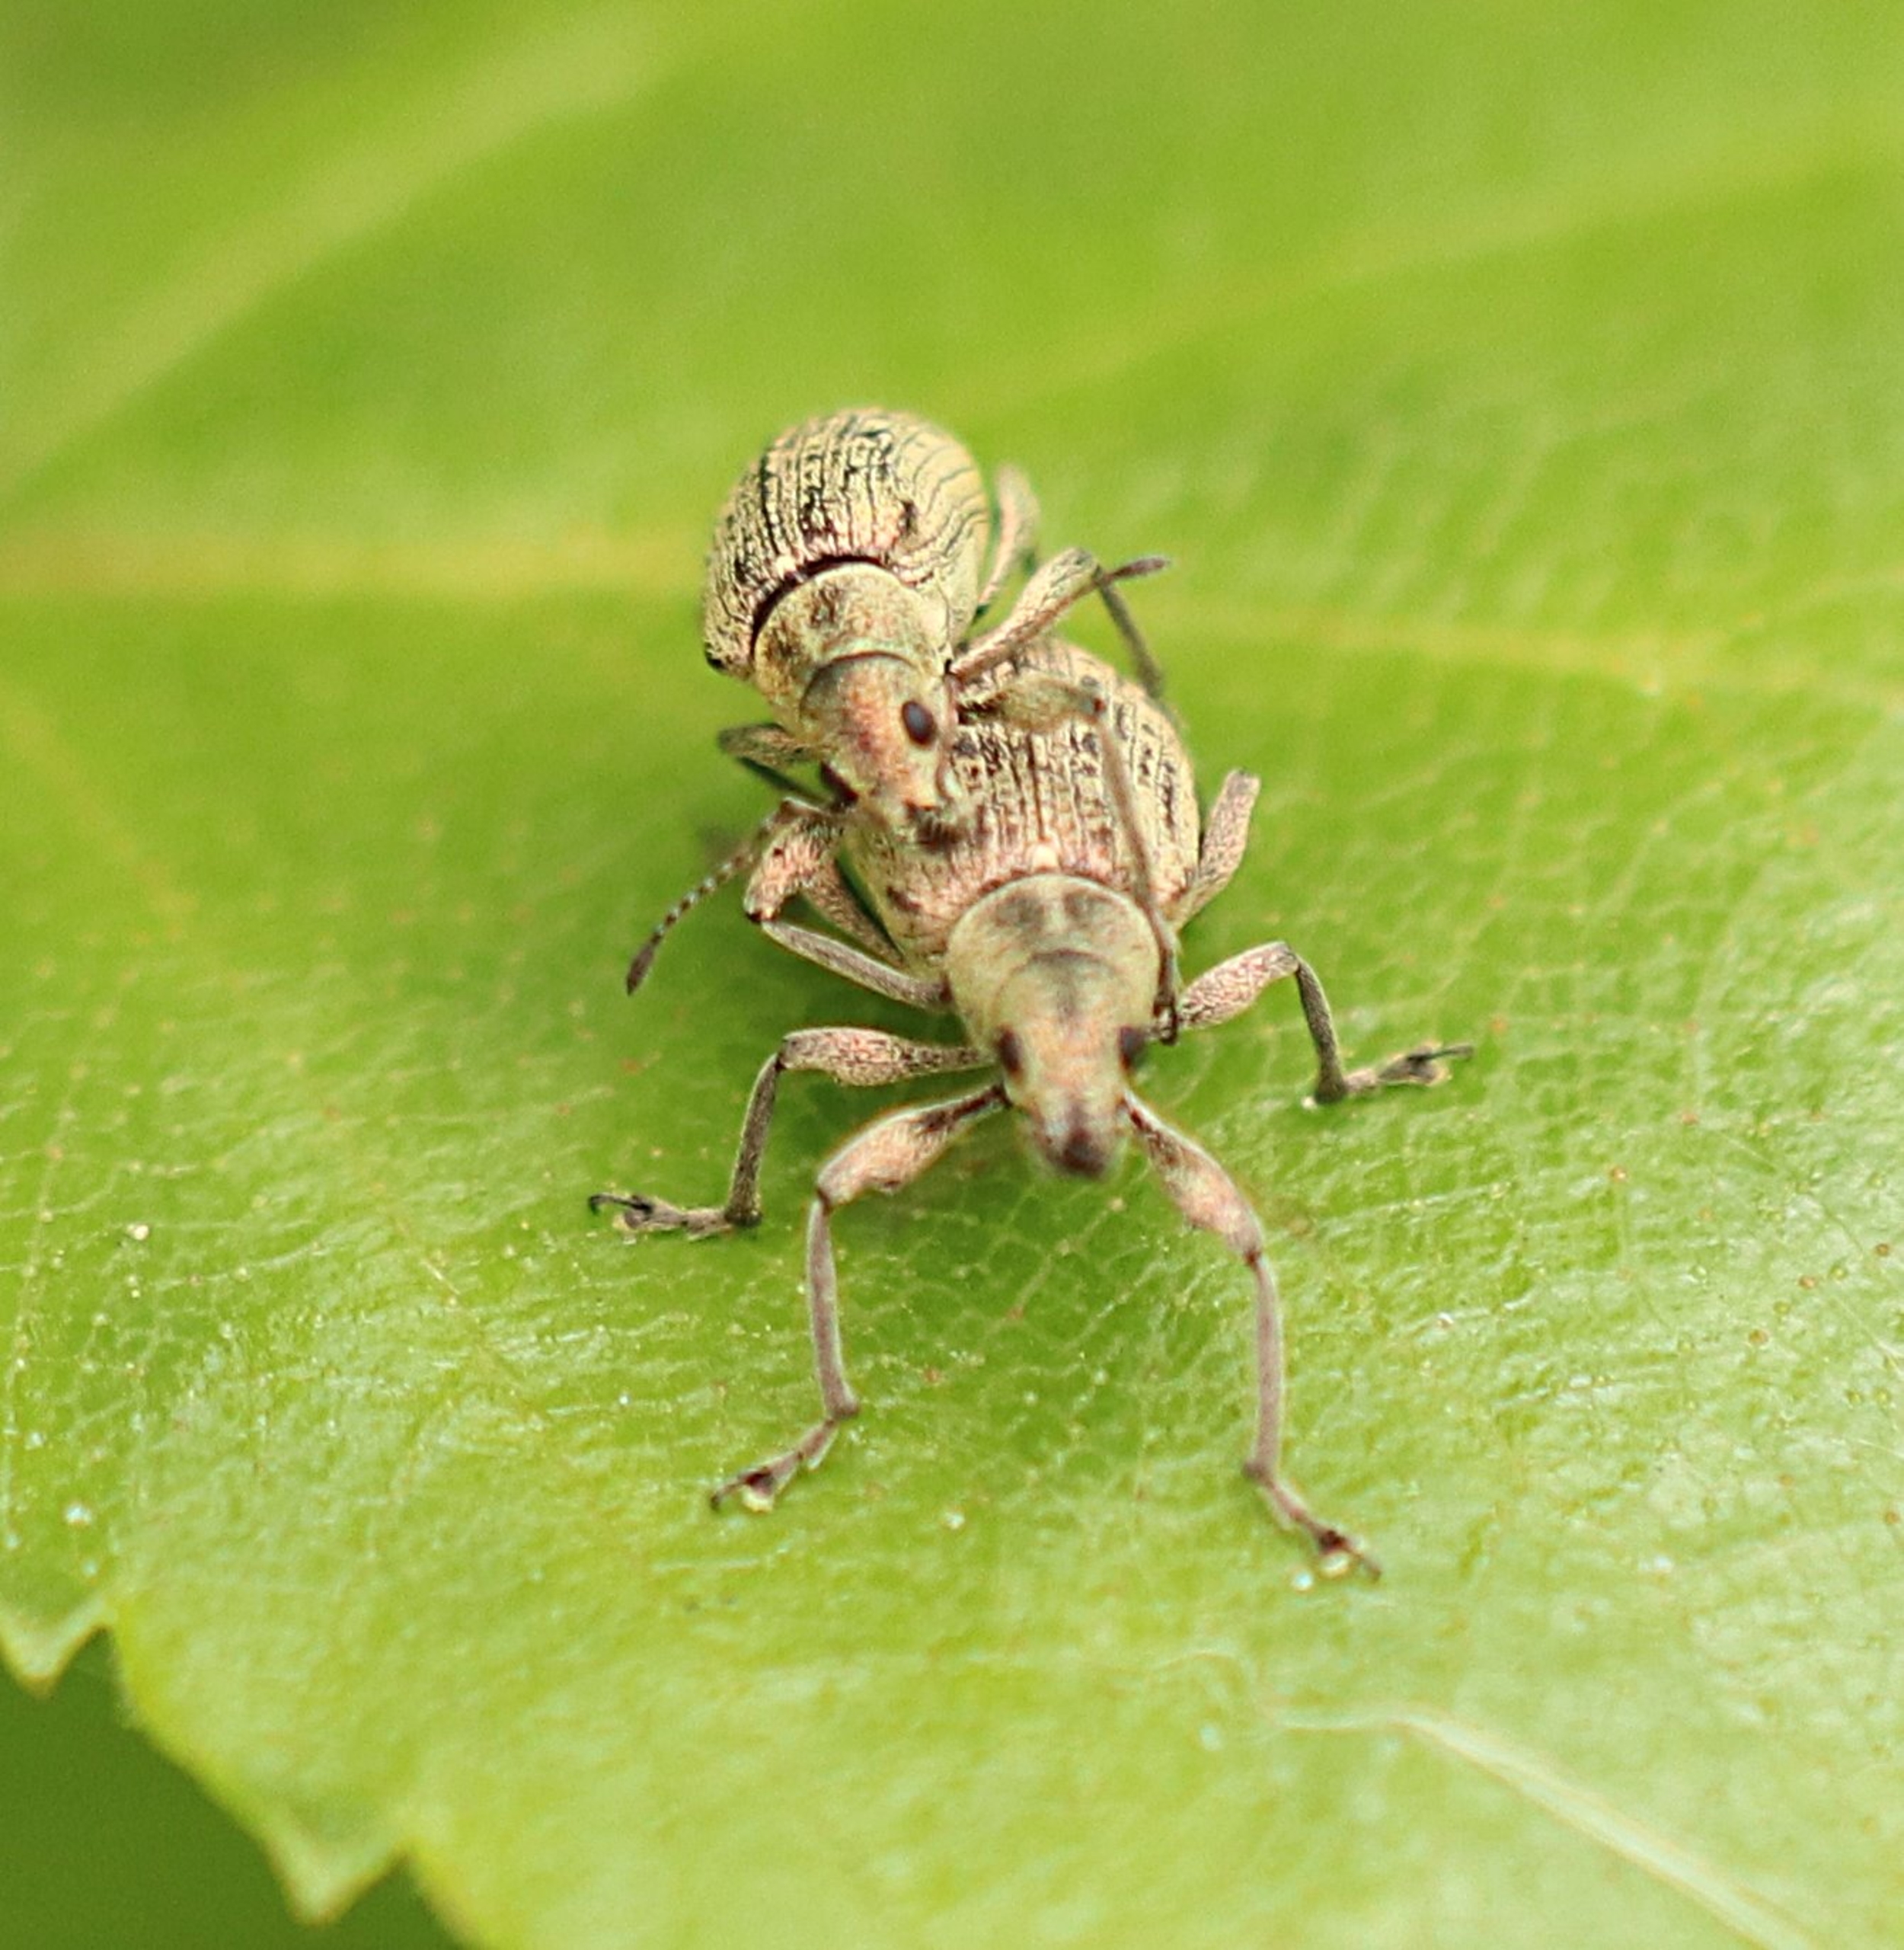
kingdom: Animalia
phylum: Arthropoda
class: Insecta
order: Coleoptera
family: Curculionidae
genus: Polydrusus
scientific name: Polydrusus cervinus
